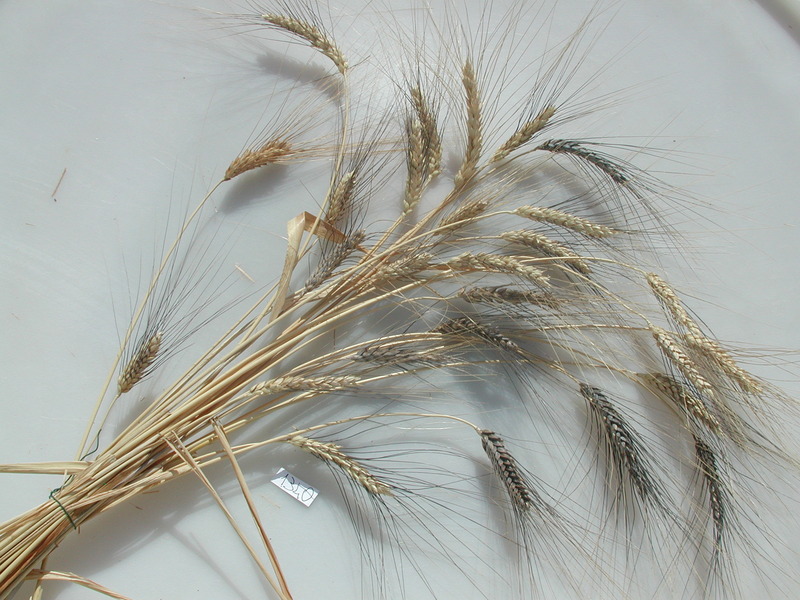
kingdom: Plantae
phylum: Tracheophyta
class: Liliopsida
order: Poales
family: Poaceae
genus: Triticum
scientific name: Triticum turgidum
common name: Wheat
